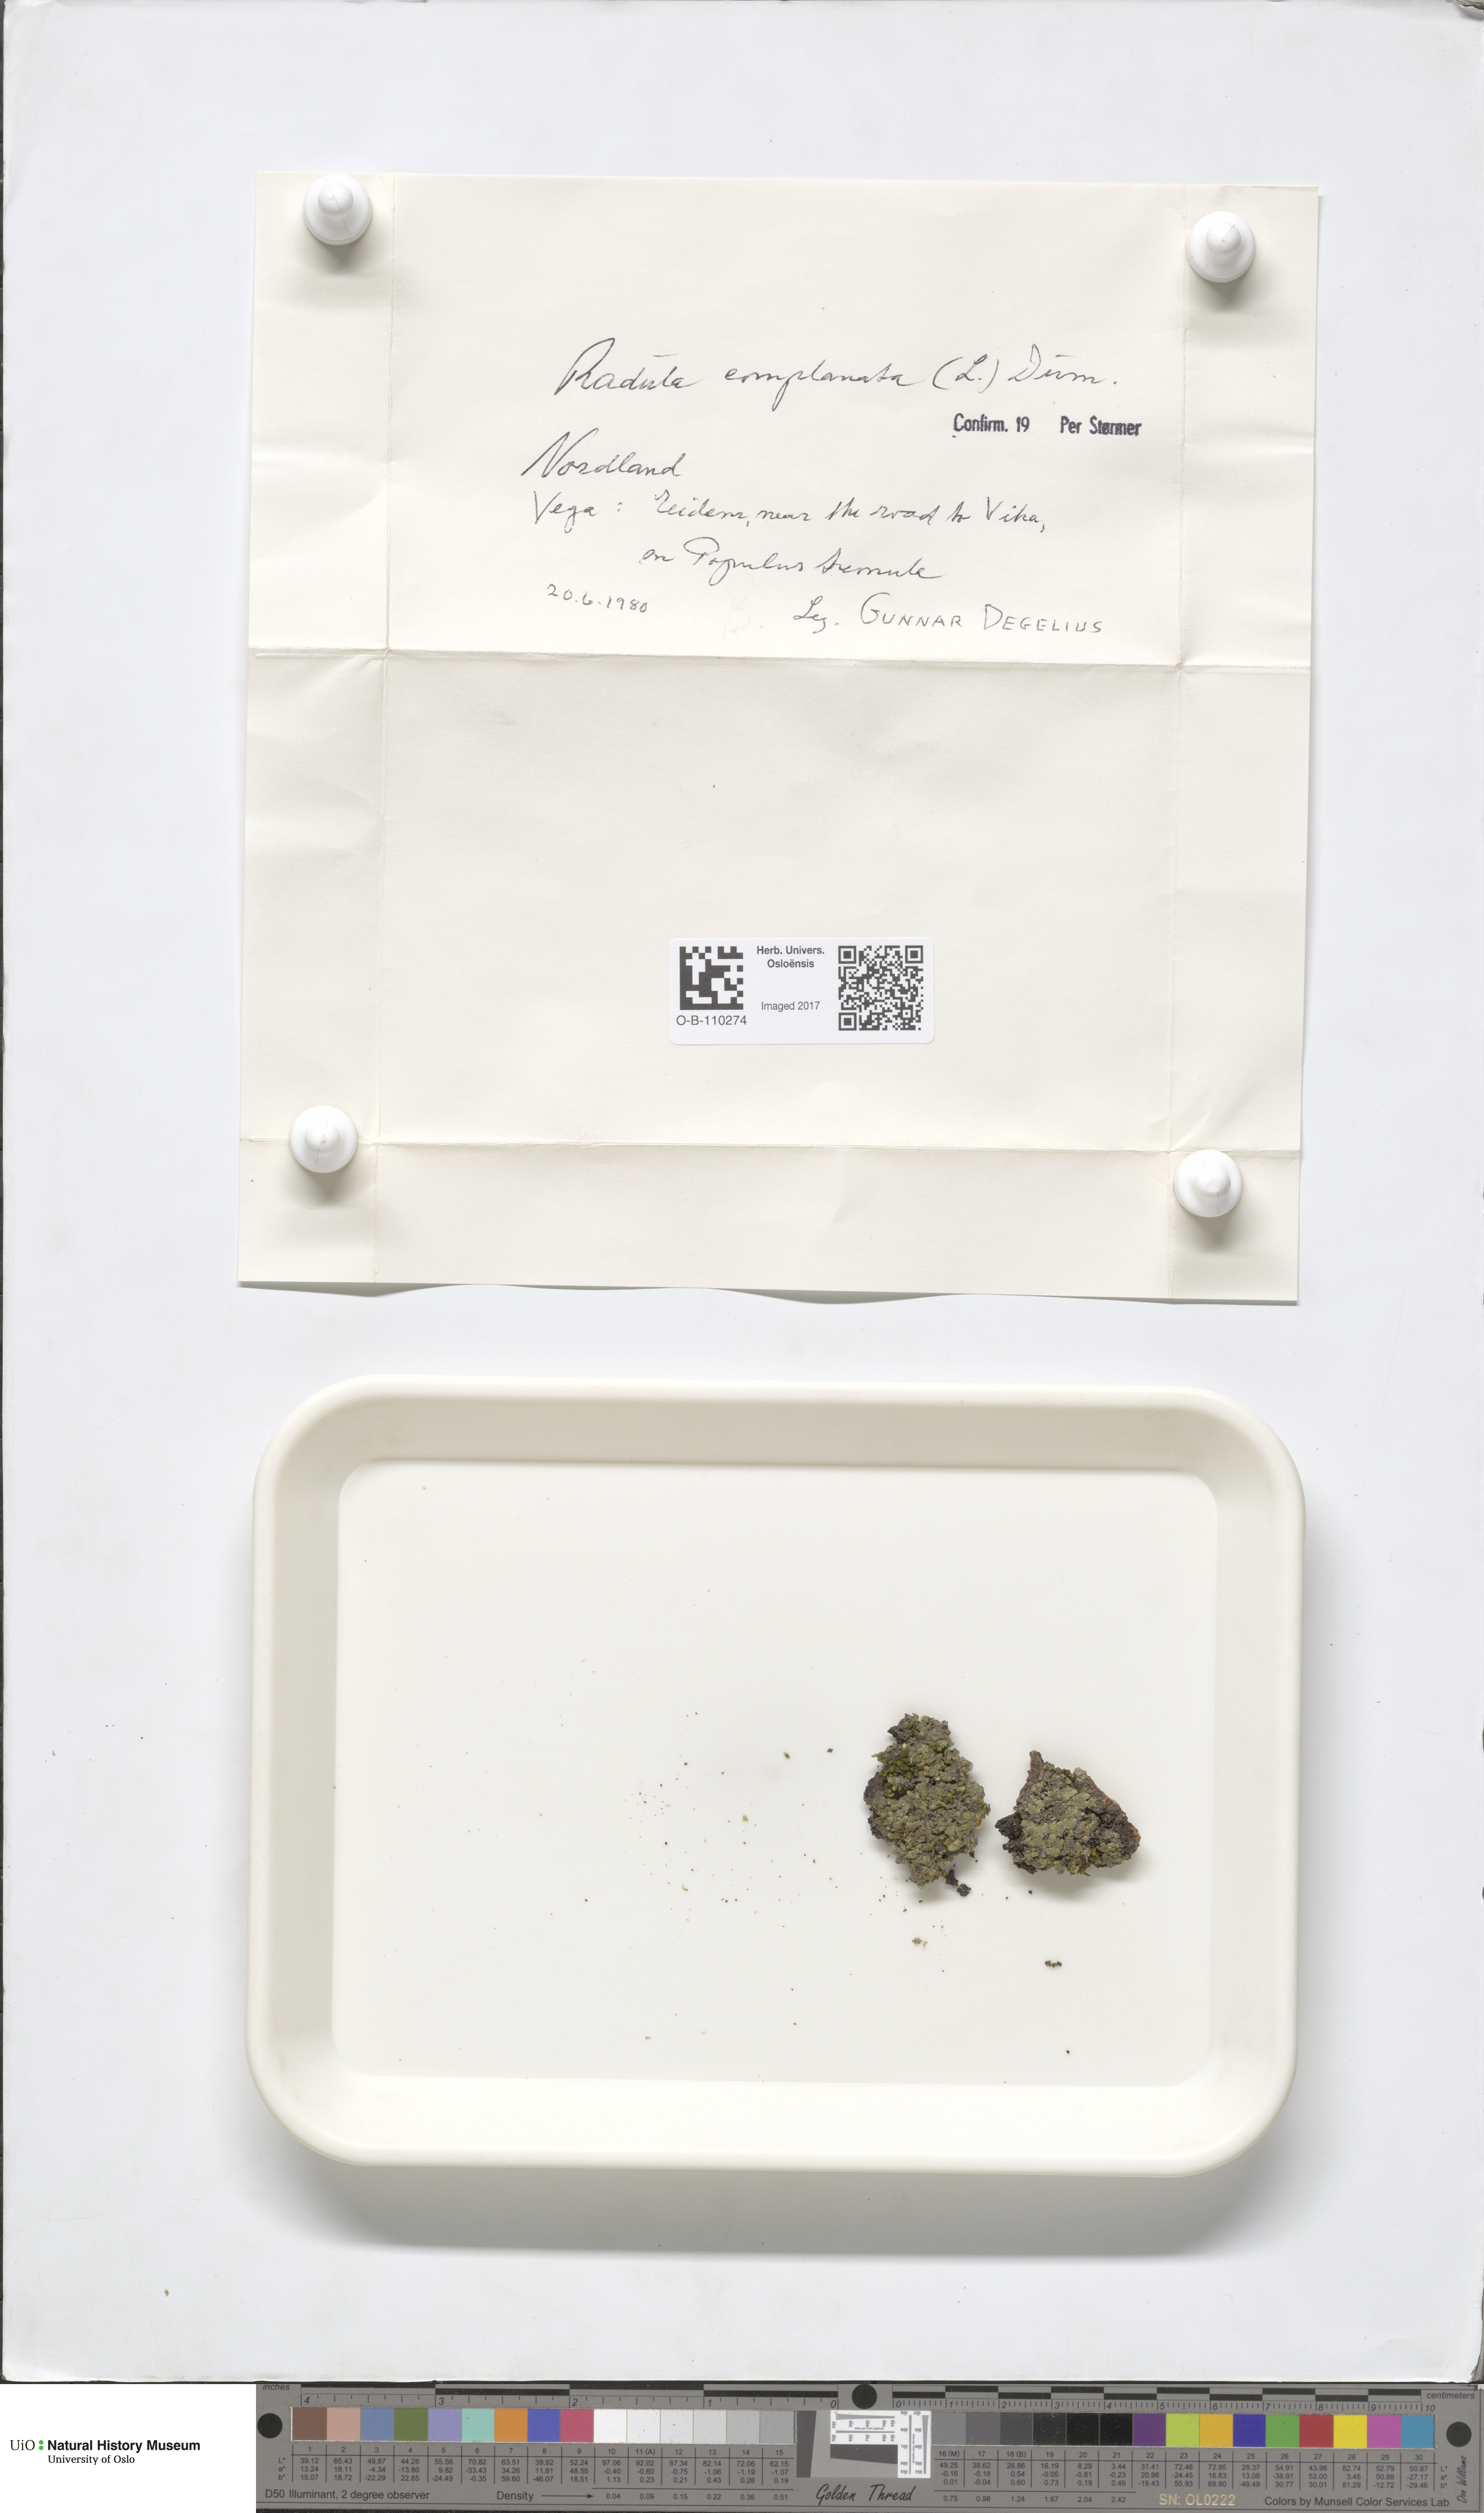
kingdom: Plantae
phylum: Marchantiophyta
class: Jungermanniopsida
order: Jungermanniales
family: Lophoziaceae
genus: Trilophozia
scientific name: Trilophozia quinquedentata
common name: Large notchwort
